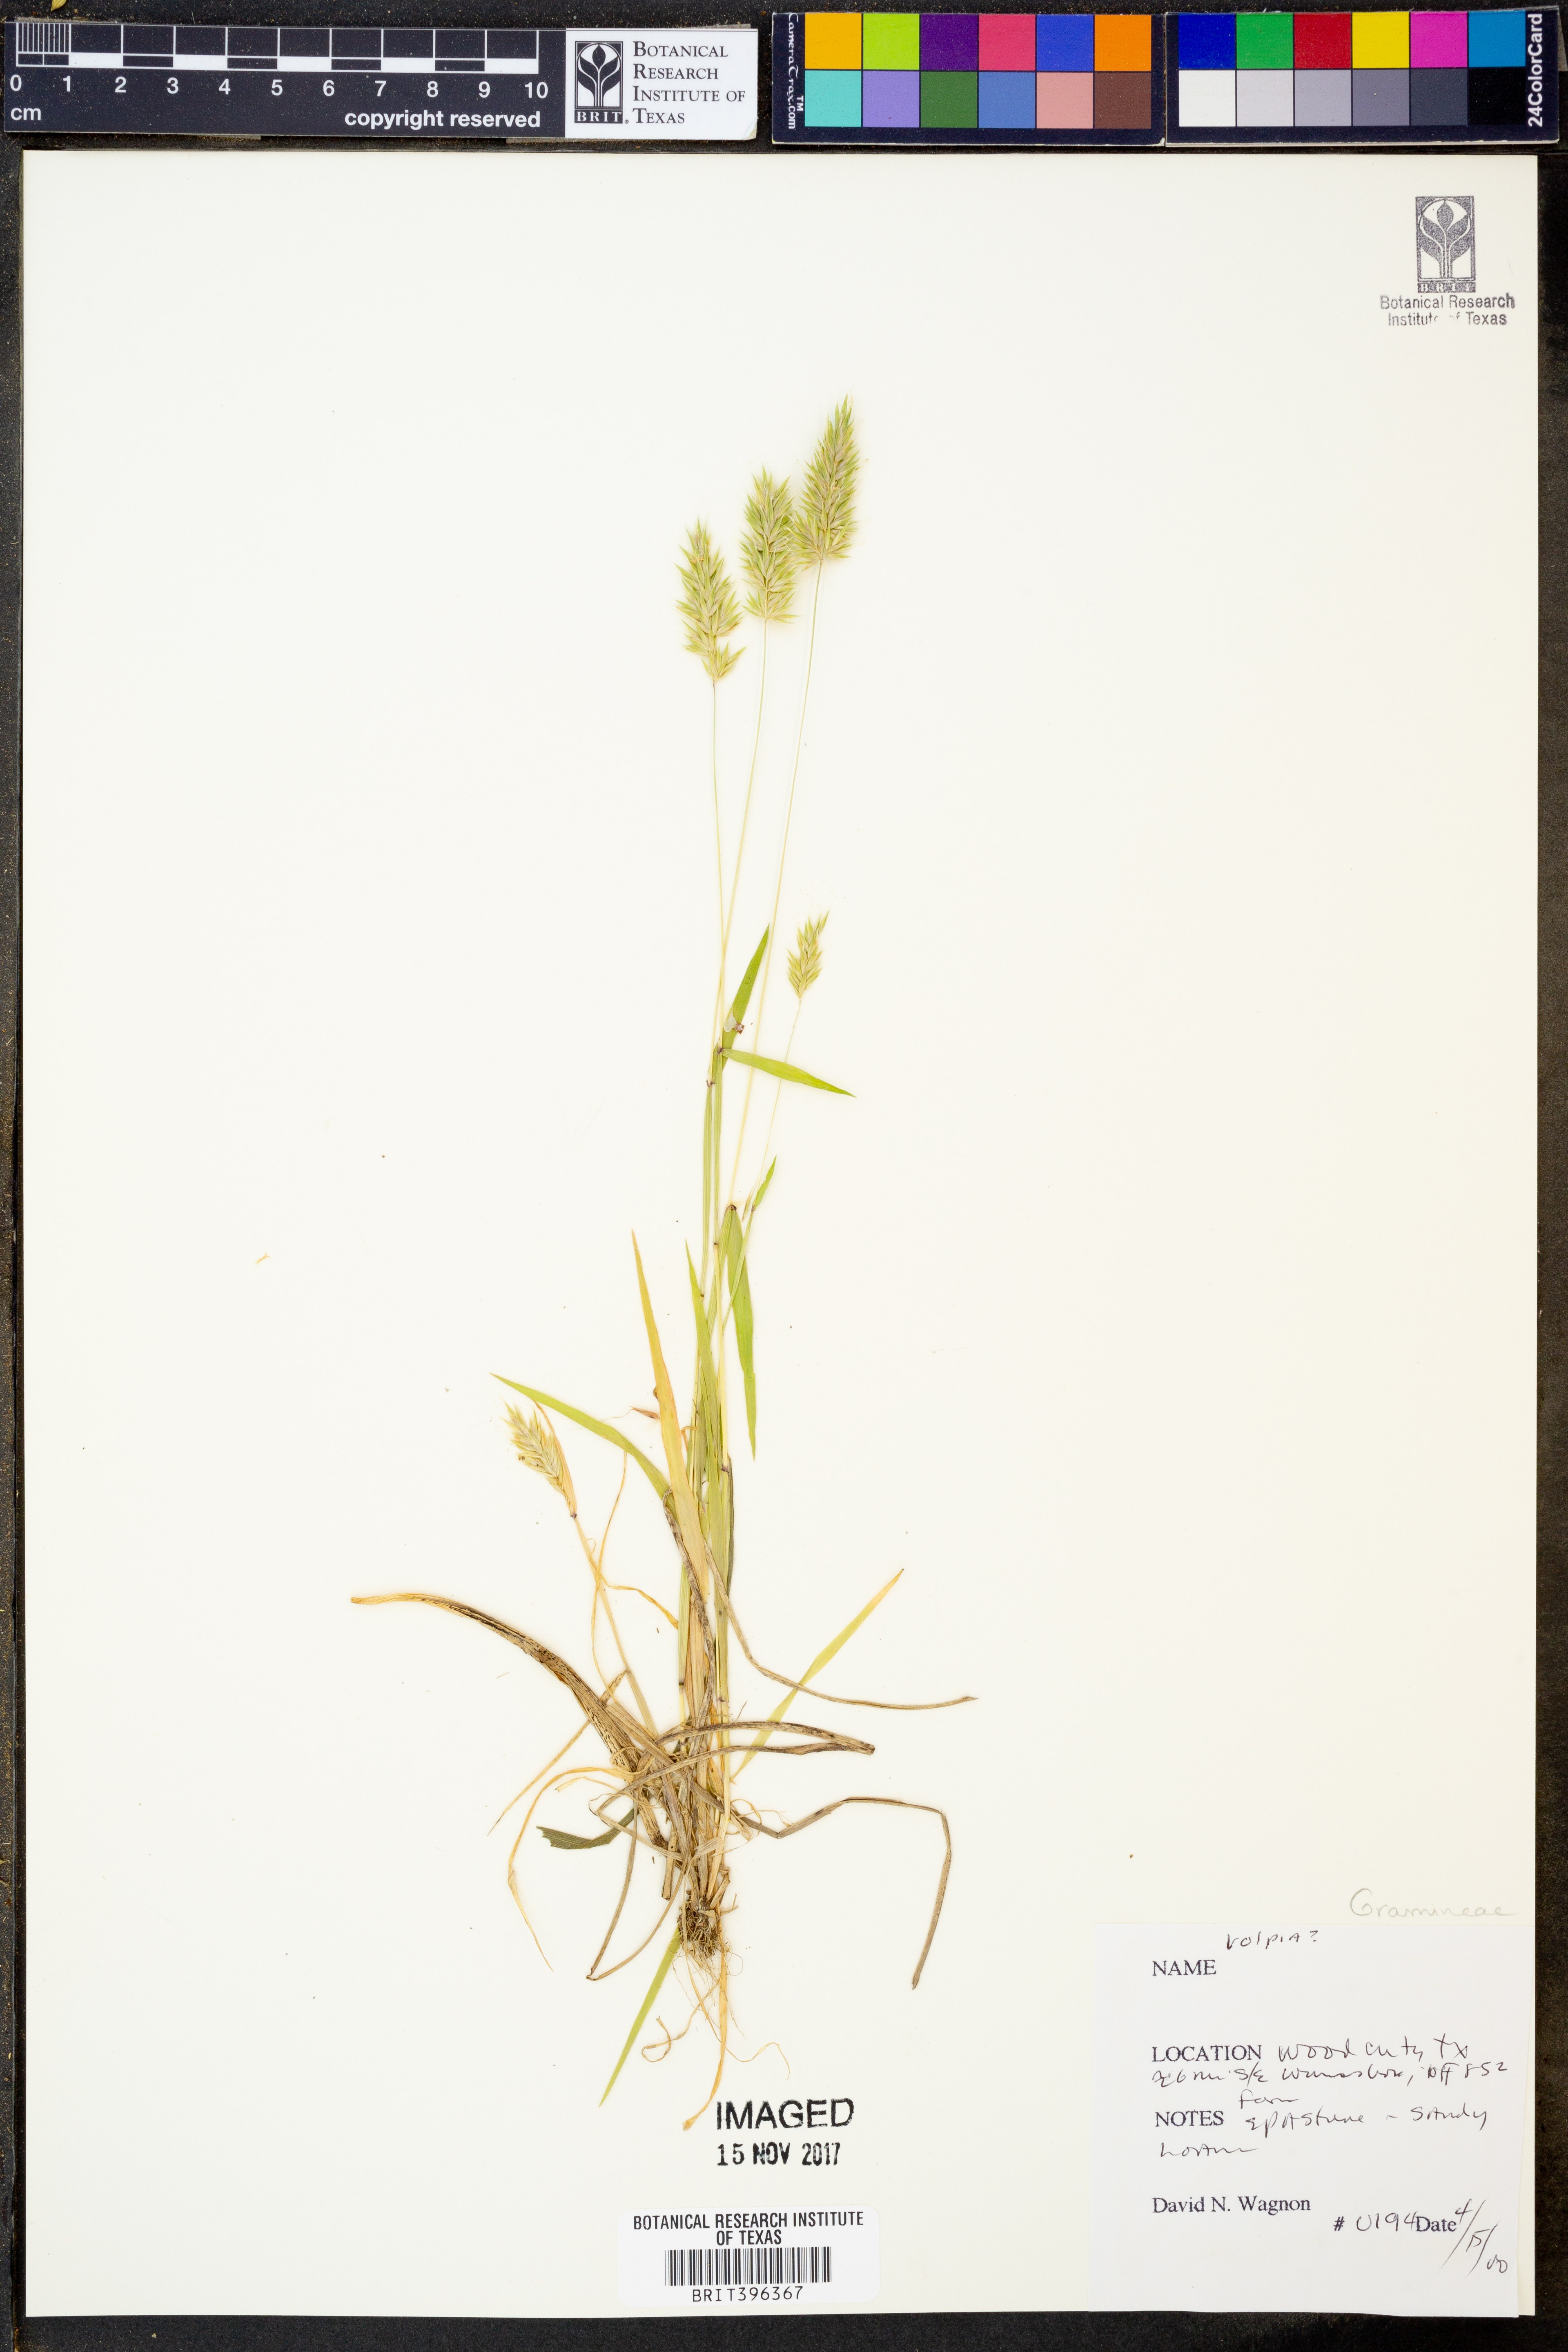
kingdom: Plantae
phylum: Tracheophyta
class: Liliopsida
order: Poales
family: Poaceae
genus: Festuca
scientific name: Festuca
